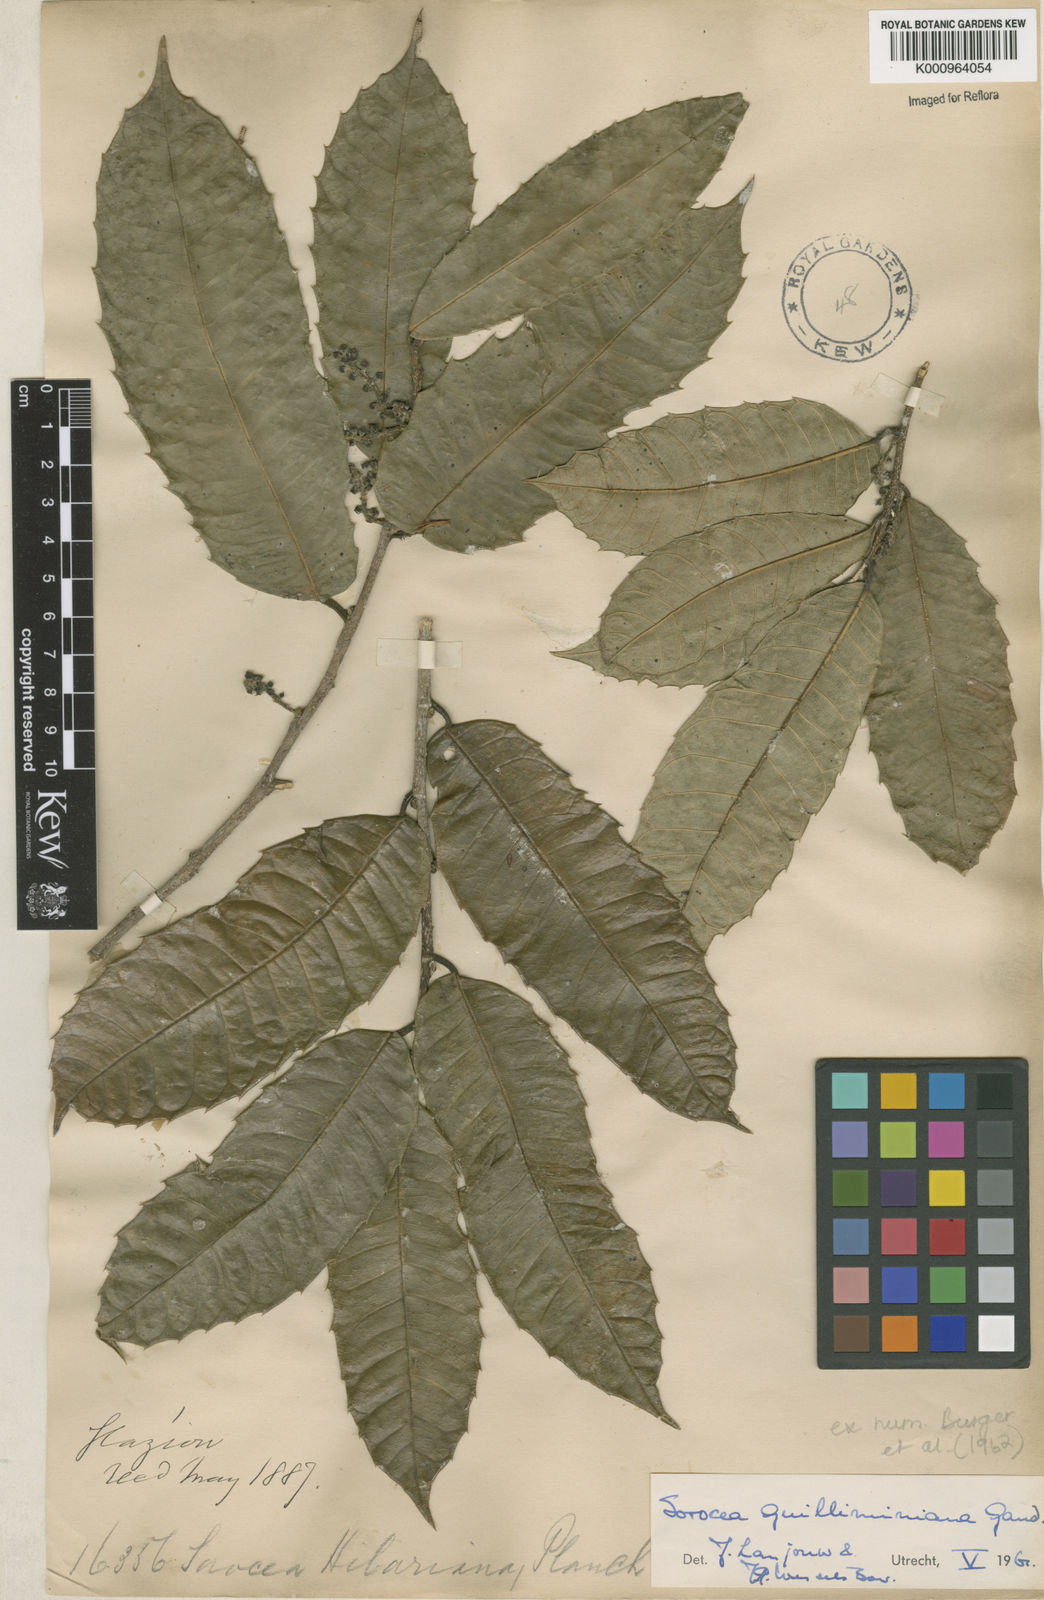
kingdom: Plantae
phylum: Tracheophyta
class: Magnoliopsida
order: Rosales
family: Moraceae
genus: Sorocea
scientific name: Sorocea guilleminiana
